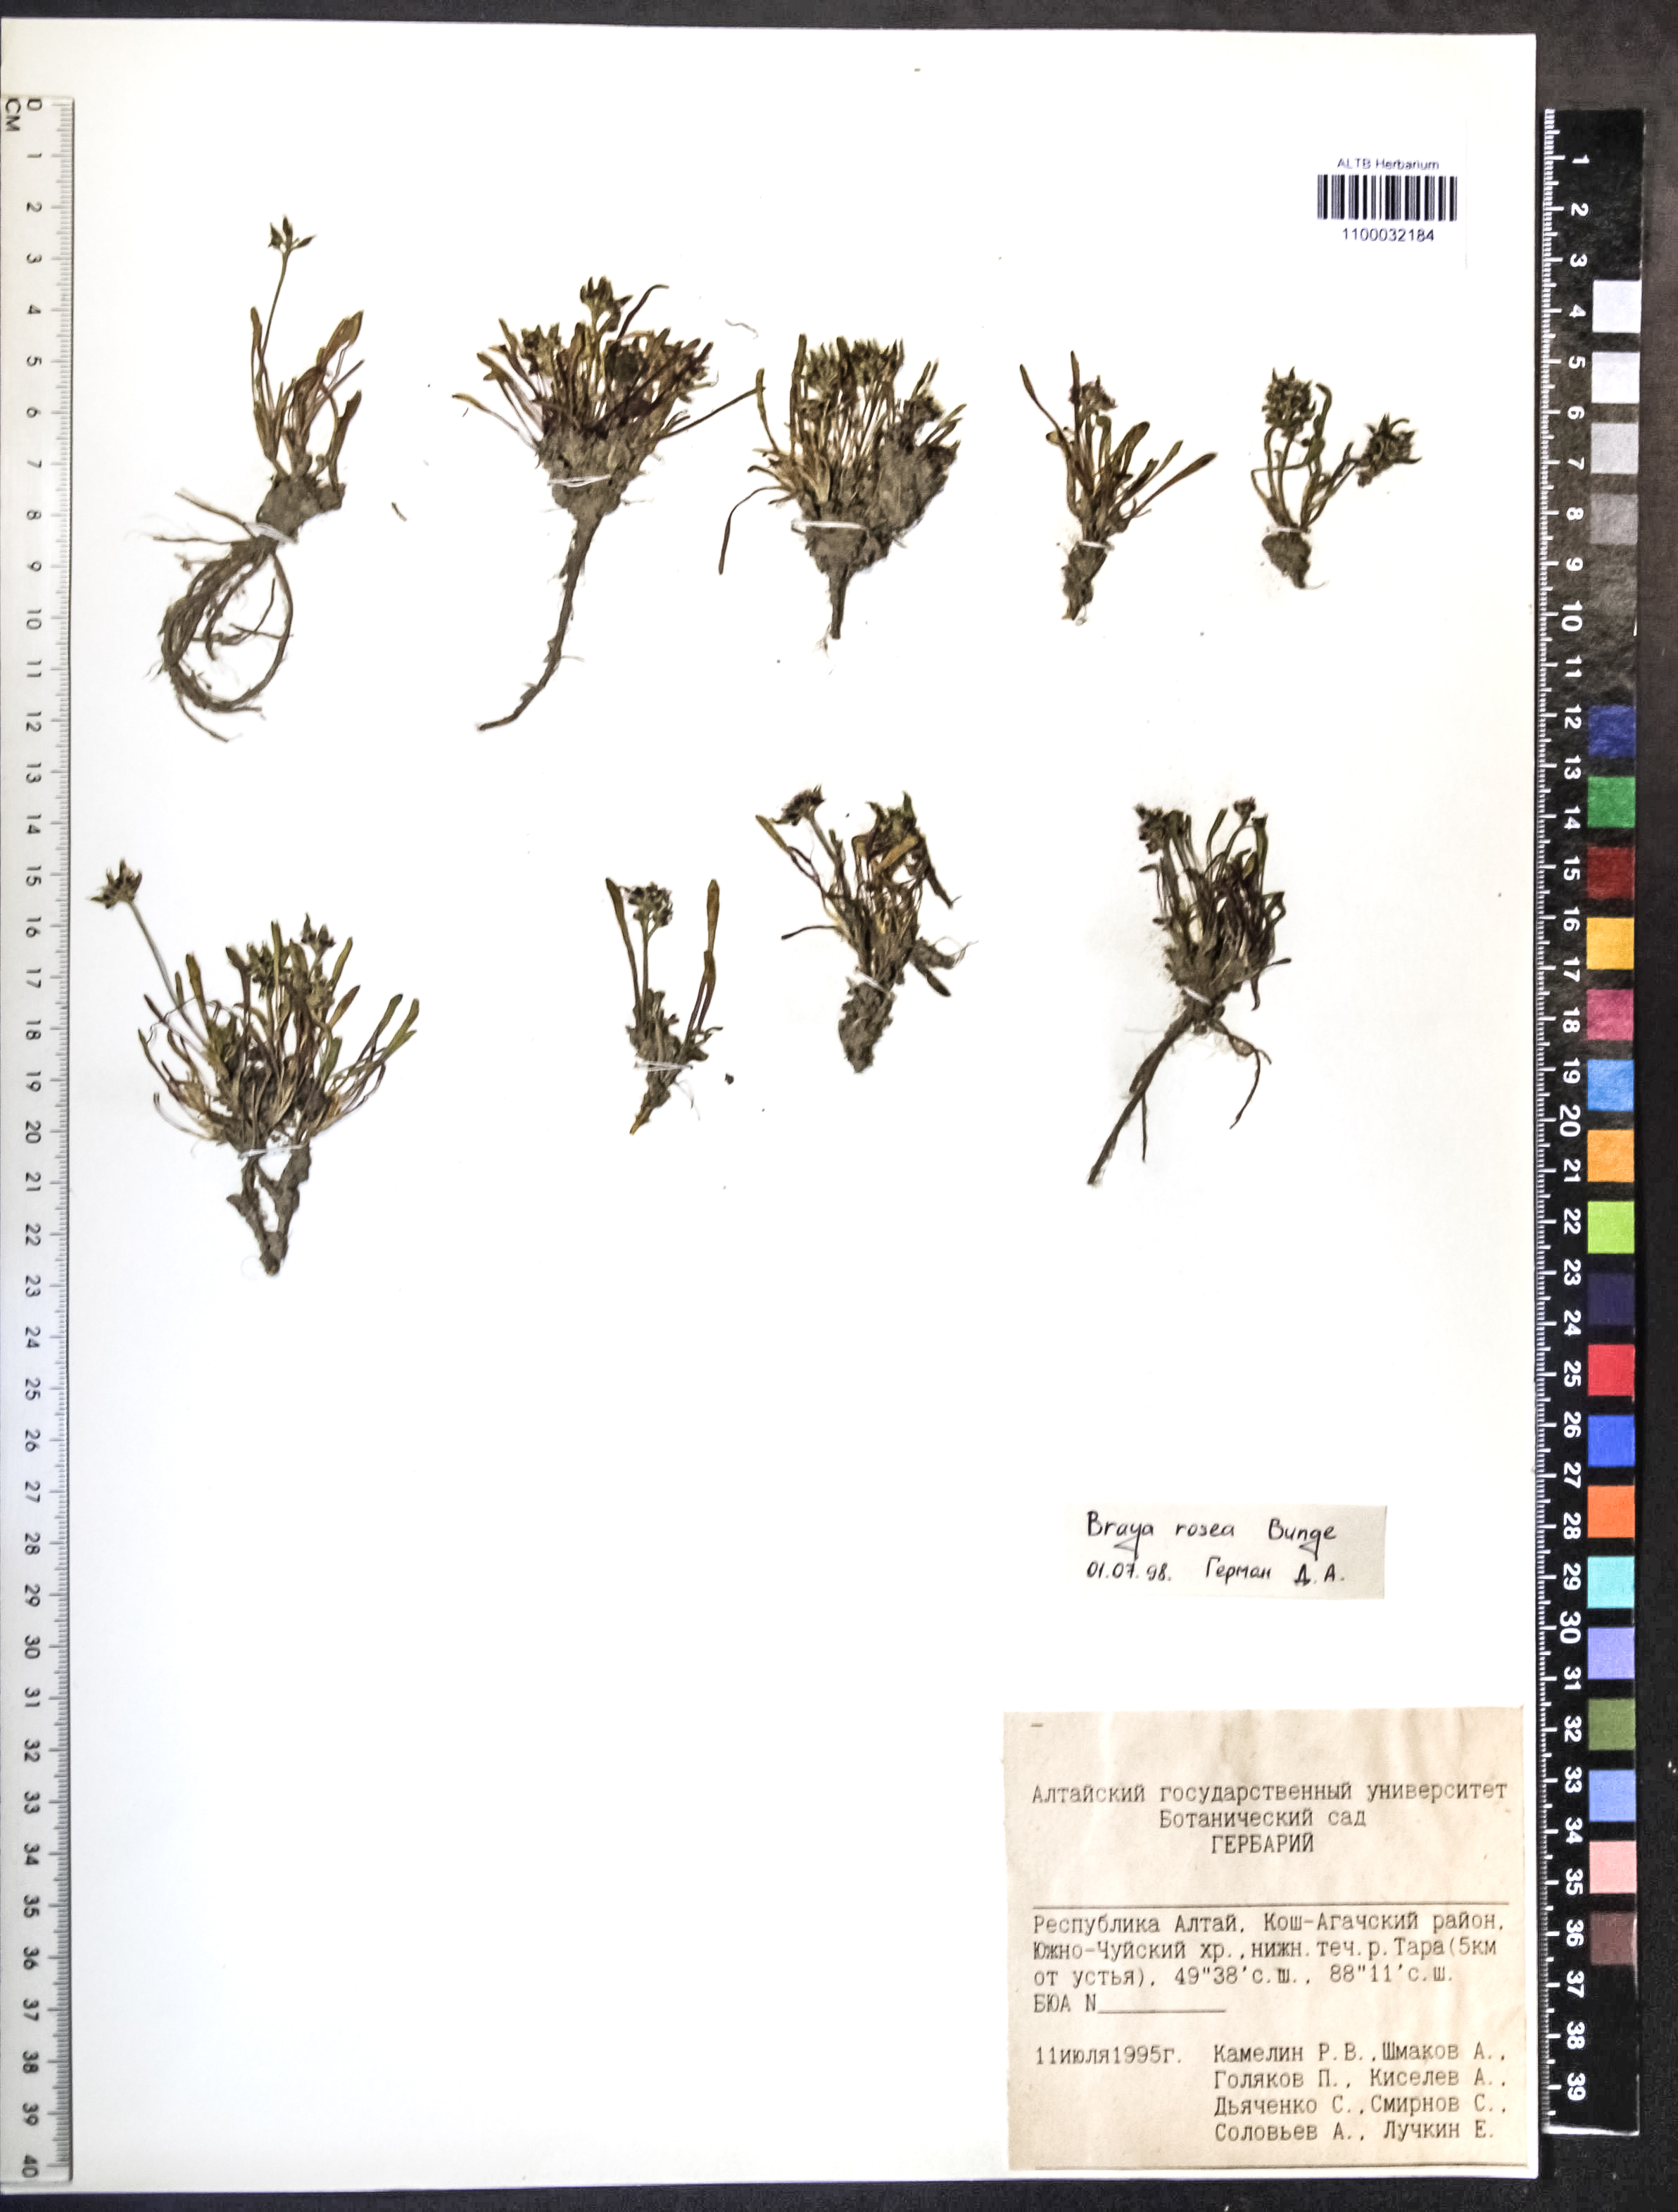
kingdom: Plantae
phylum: Tracheophyta
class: Magnoliopsida
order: Brassicales
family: Brassicaceae
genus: Braya
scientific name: Braya rosea
